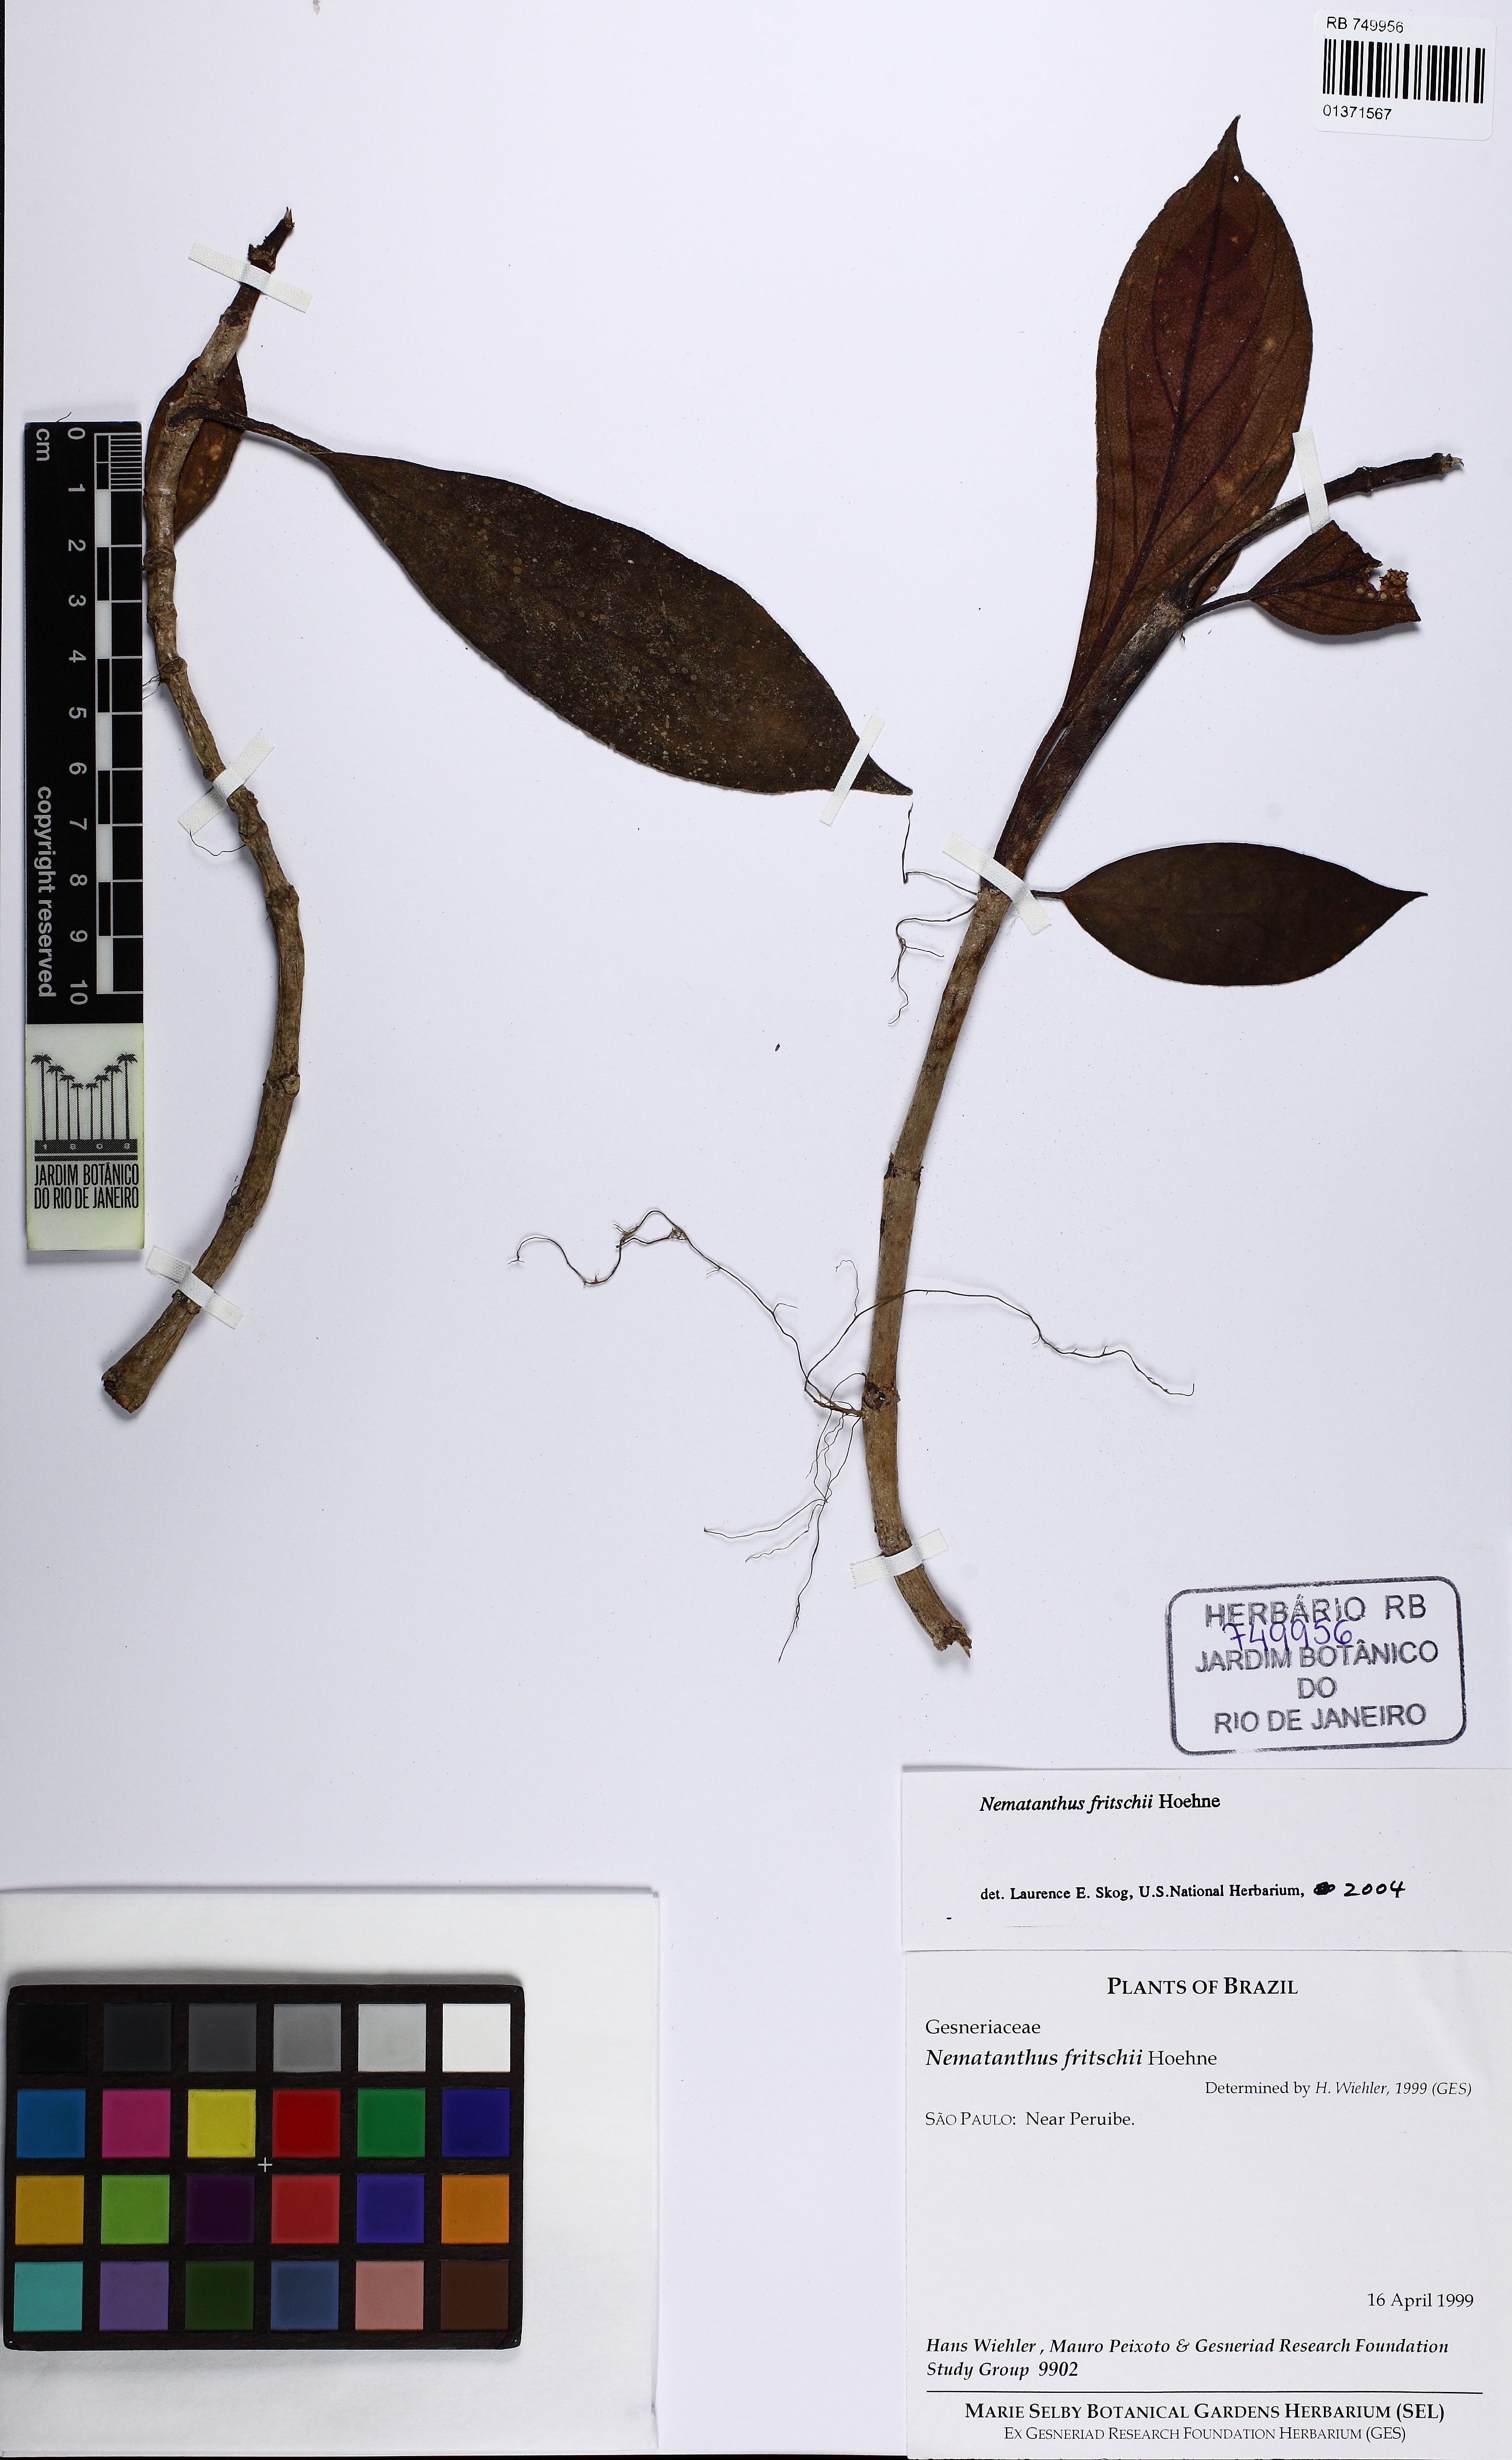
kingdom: Plantae
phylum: Tracheophyta
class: Magnoliopsida
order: Lamiales
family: Gesneriaceae
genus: Nematanthus
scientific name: Nematanthus fritschii
